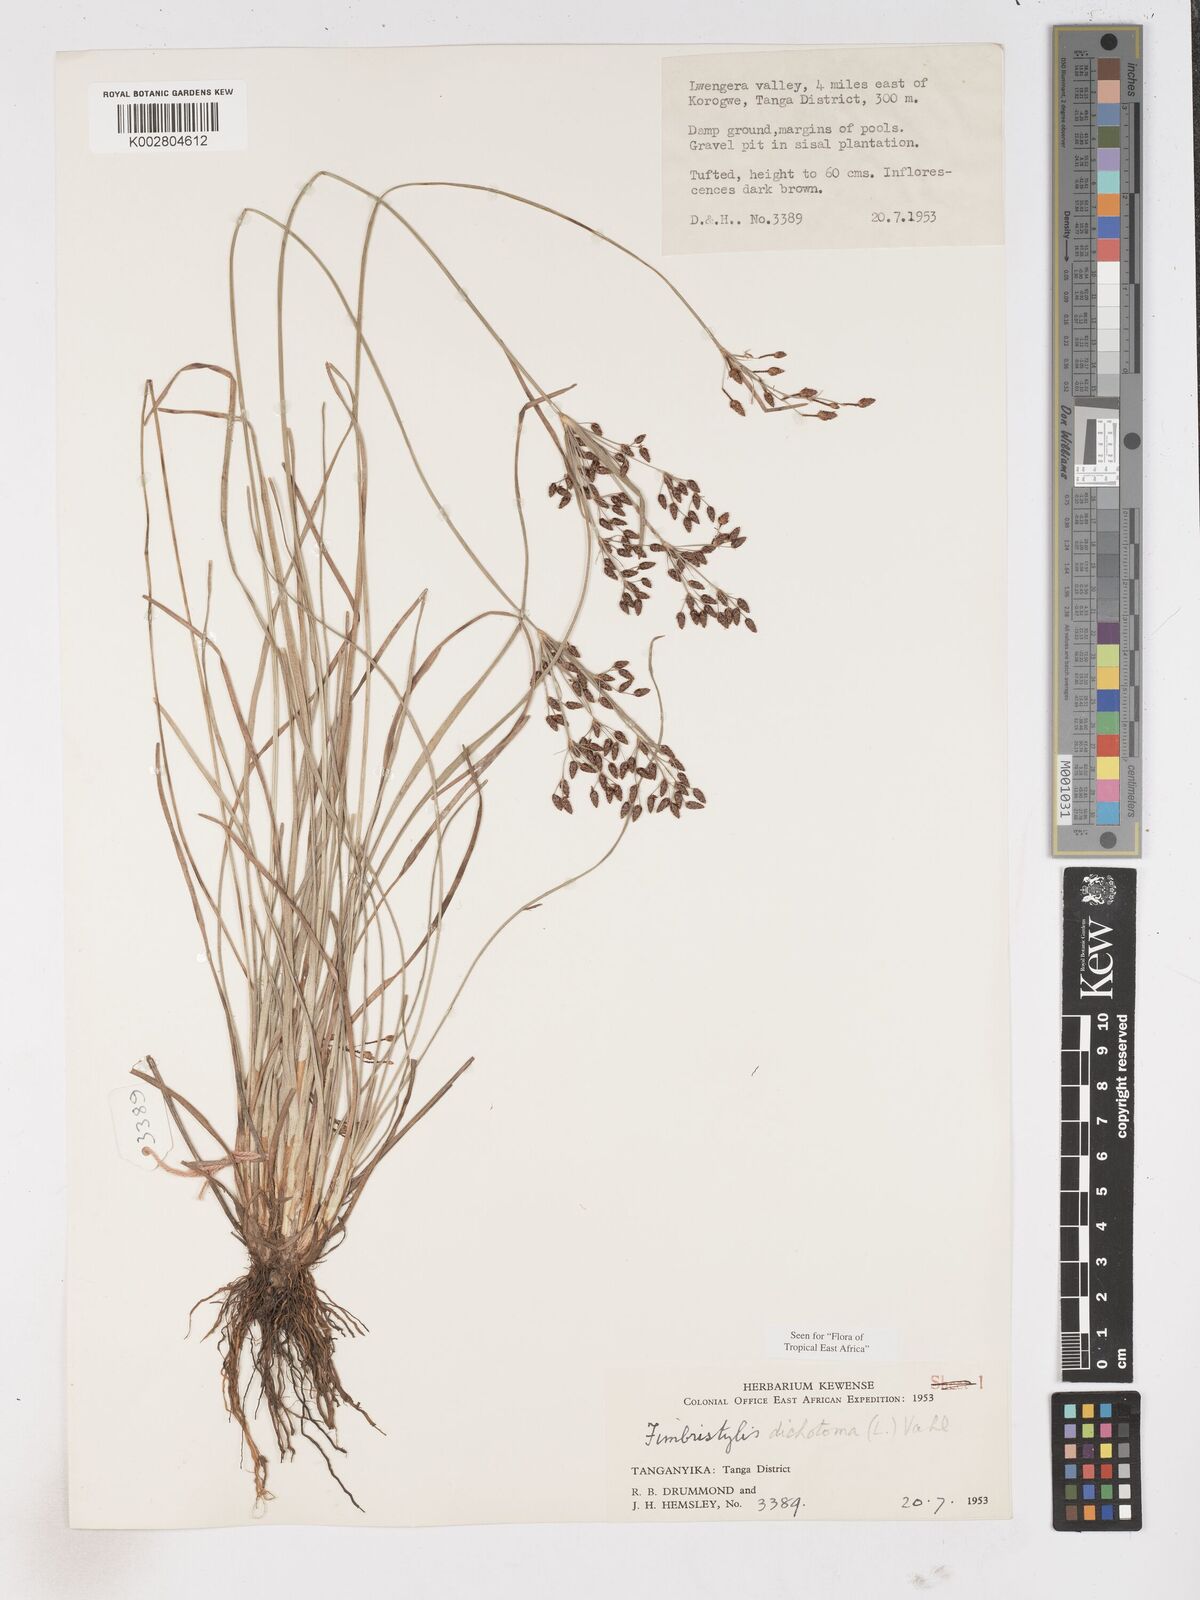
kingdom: Plantae
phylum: Tracheophyta
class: Liliopsida
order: Poales
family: Cyperaceae
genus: Fimbristylis
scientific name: Fimbristylis dichotoma
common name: Forked fimbry
